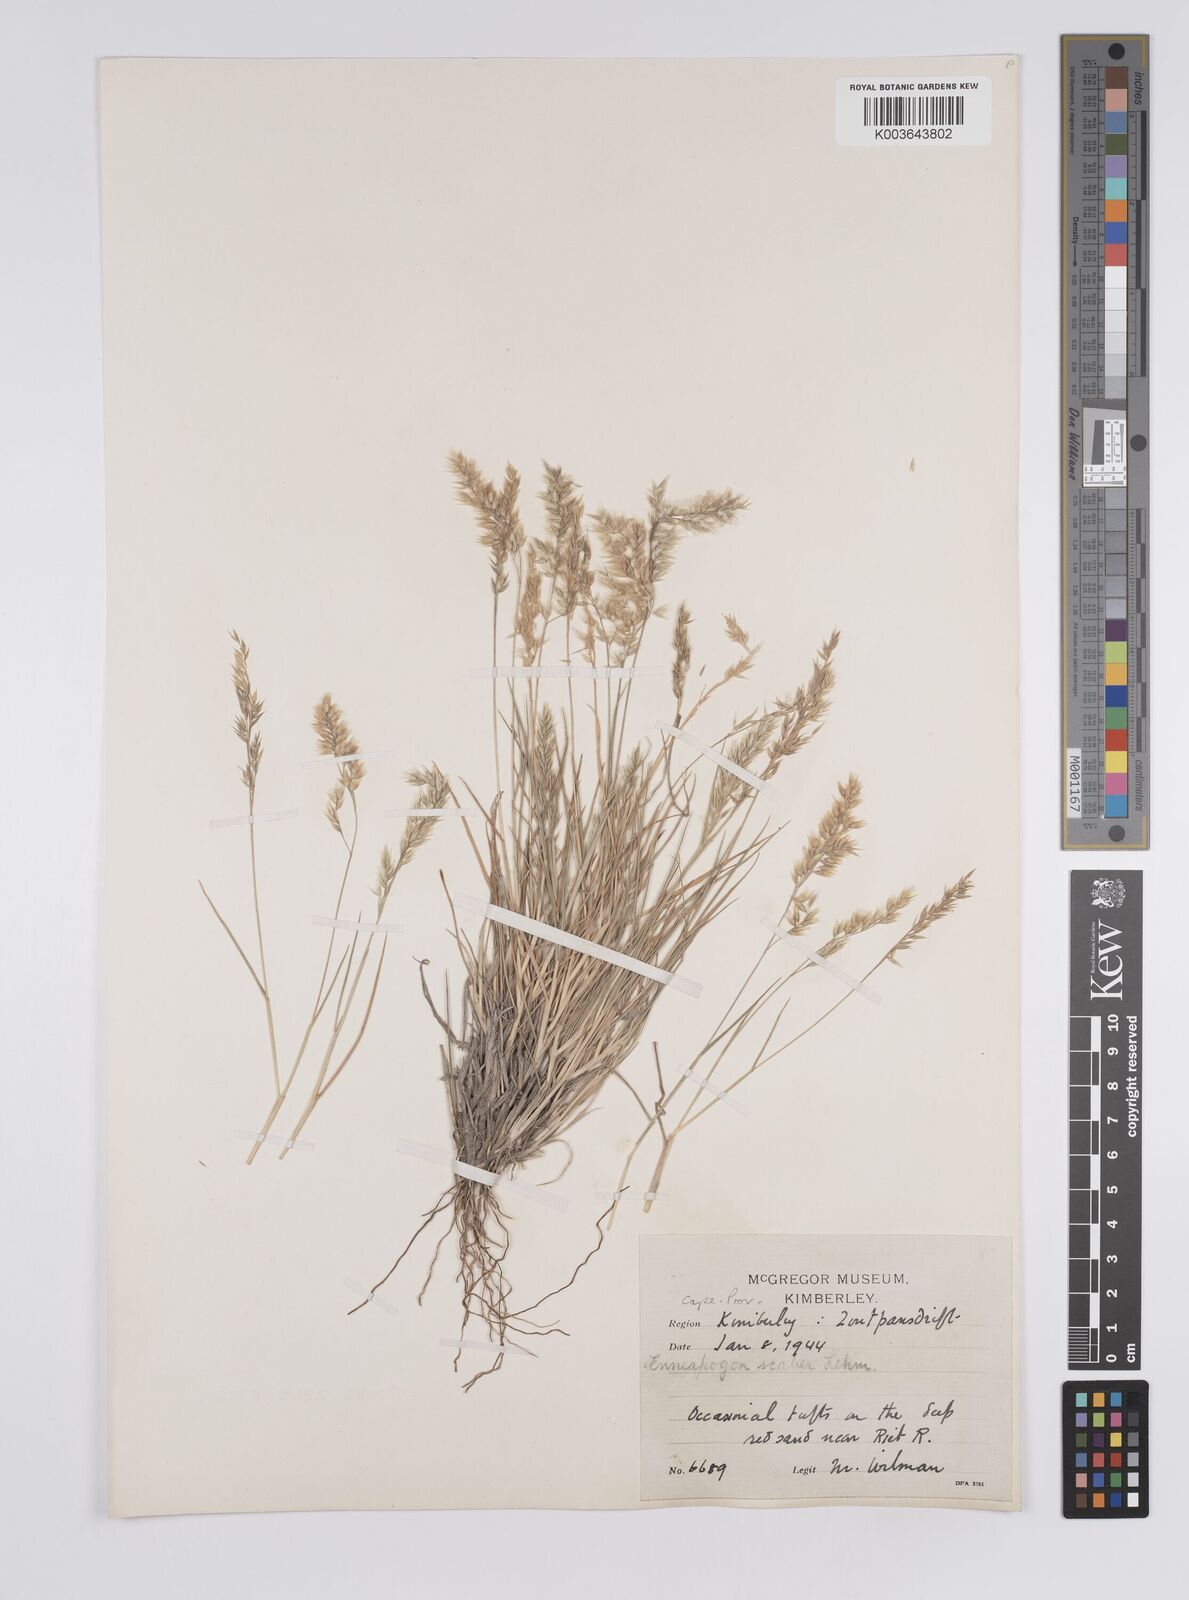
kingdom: Plantae
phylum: Tracheophyta
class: Liliopsida
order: Poales
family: Poaceae
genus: Enneapogon
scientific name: Enneapogon scaber
